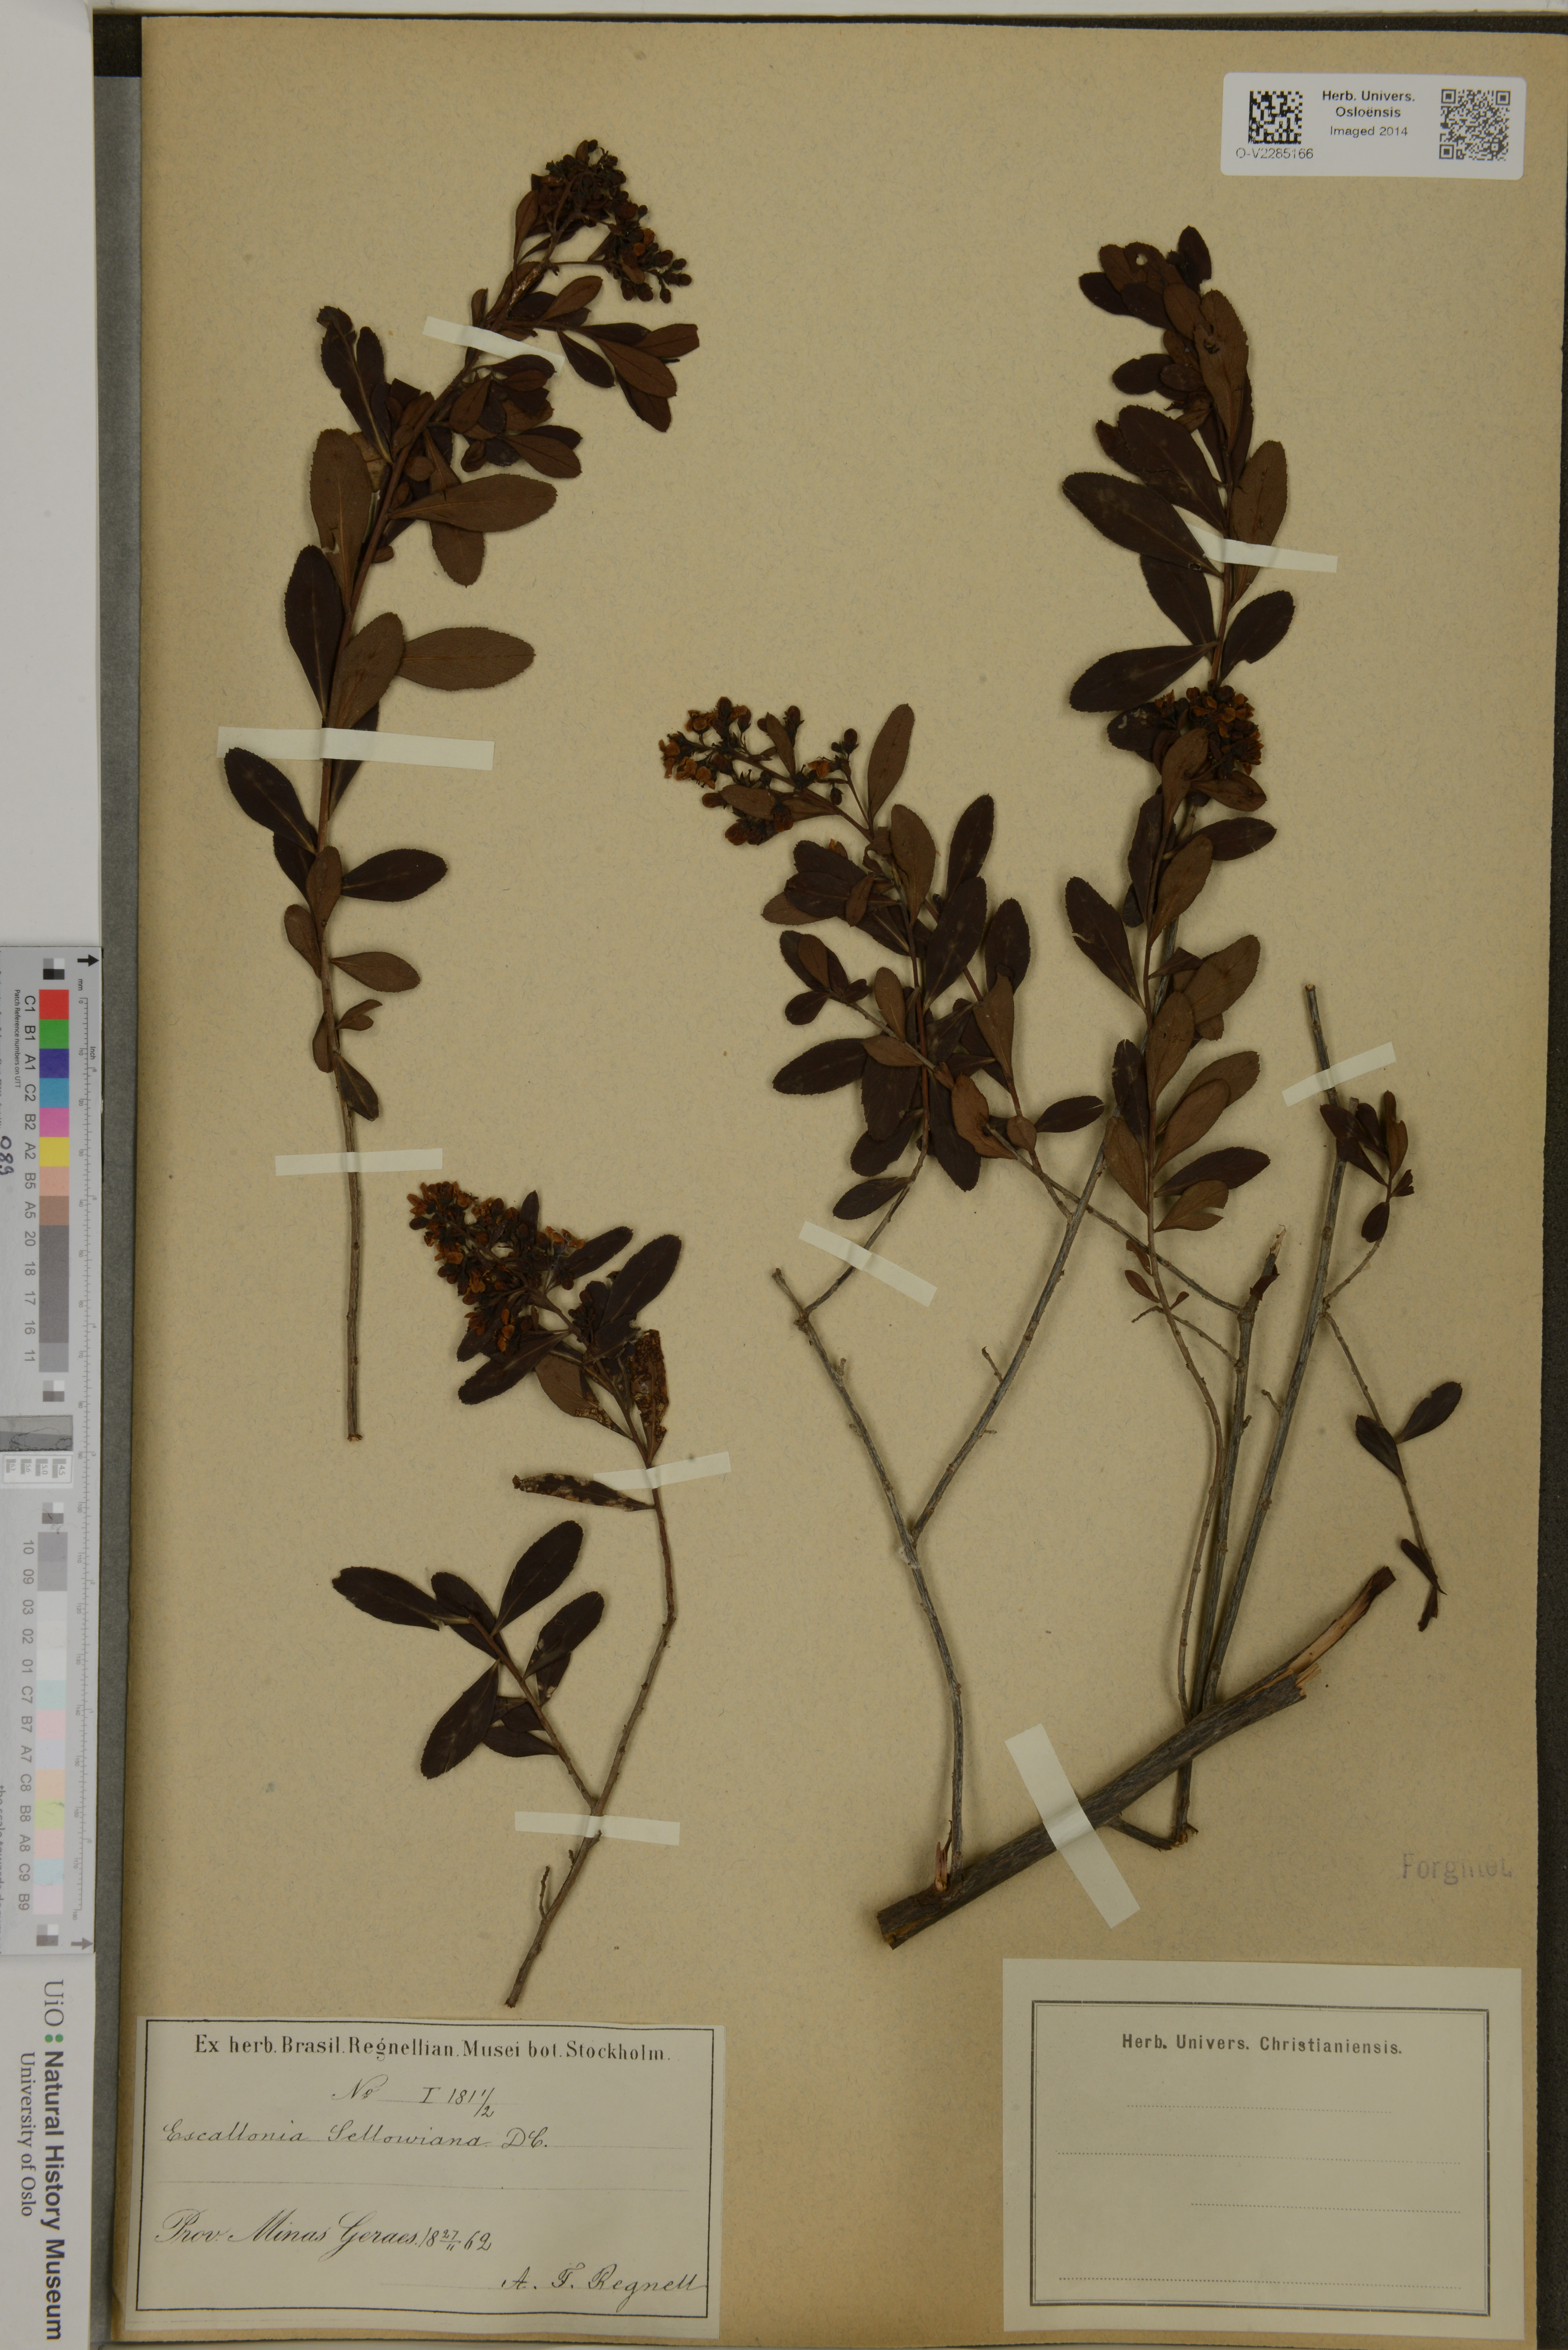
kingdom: Plantae
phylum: Tracheophyta
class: Magnoliopsida
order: Escalloniales
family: Escalloniaceae
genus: Escallonia
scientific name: Escallonia megapotamica
